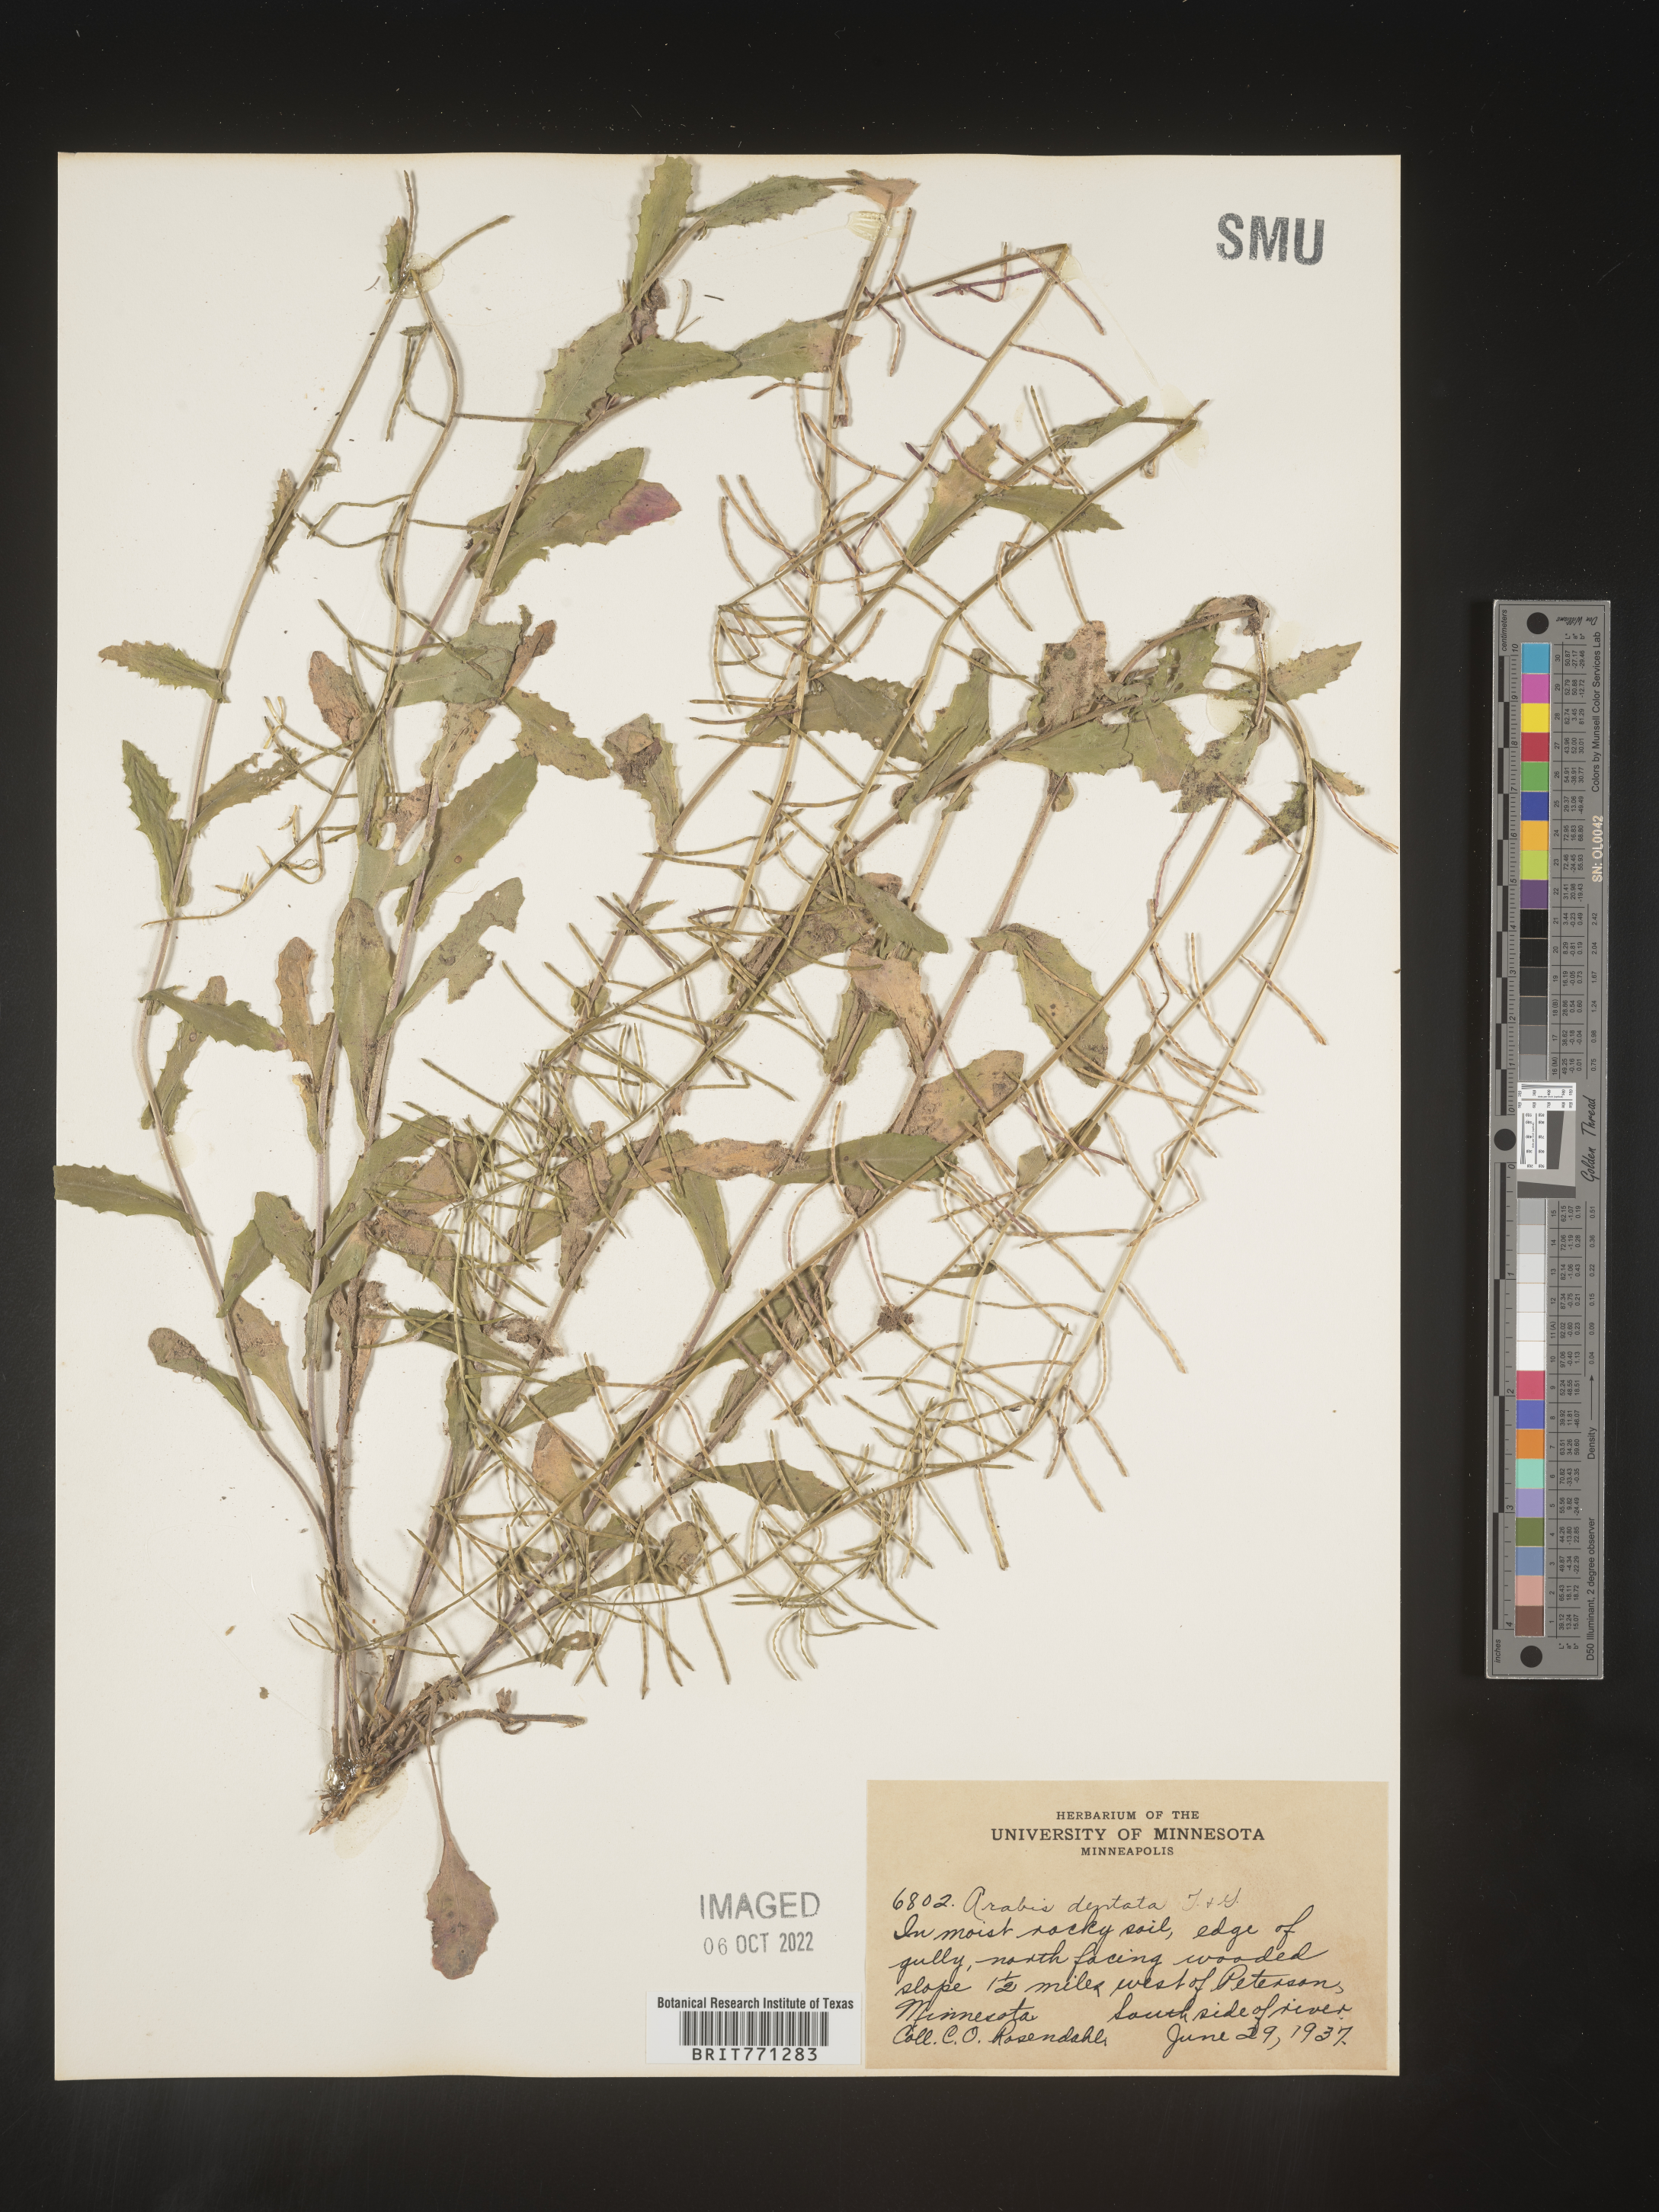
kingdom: Plantae
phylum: Tracheophyta
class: Magnoliopsida
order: Brassicales
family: Brassicaceae
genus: Arabis
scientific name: Arabis
